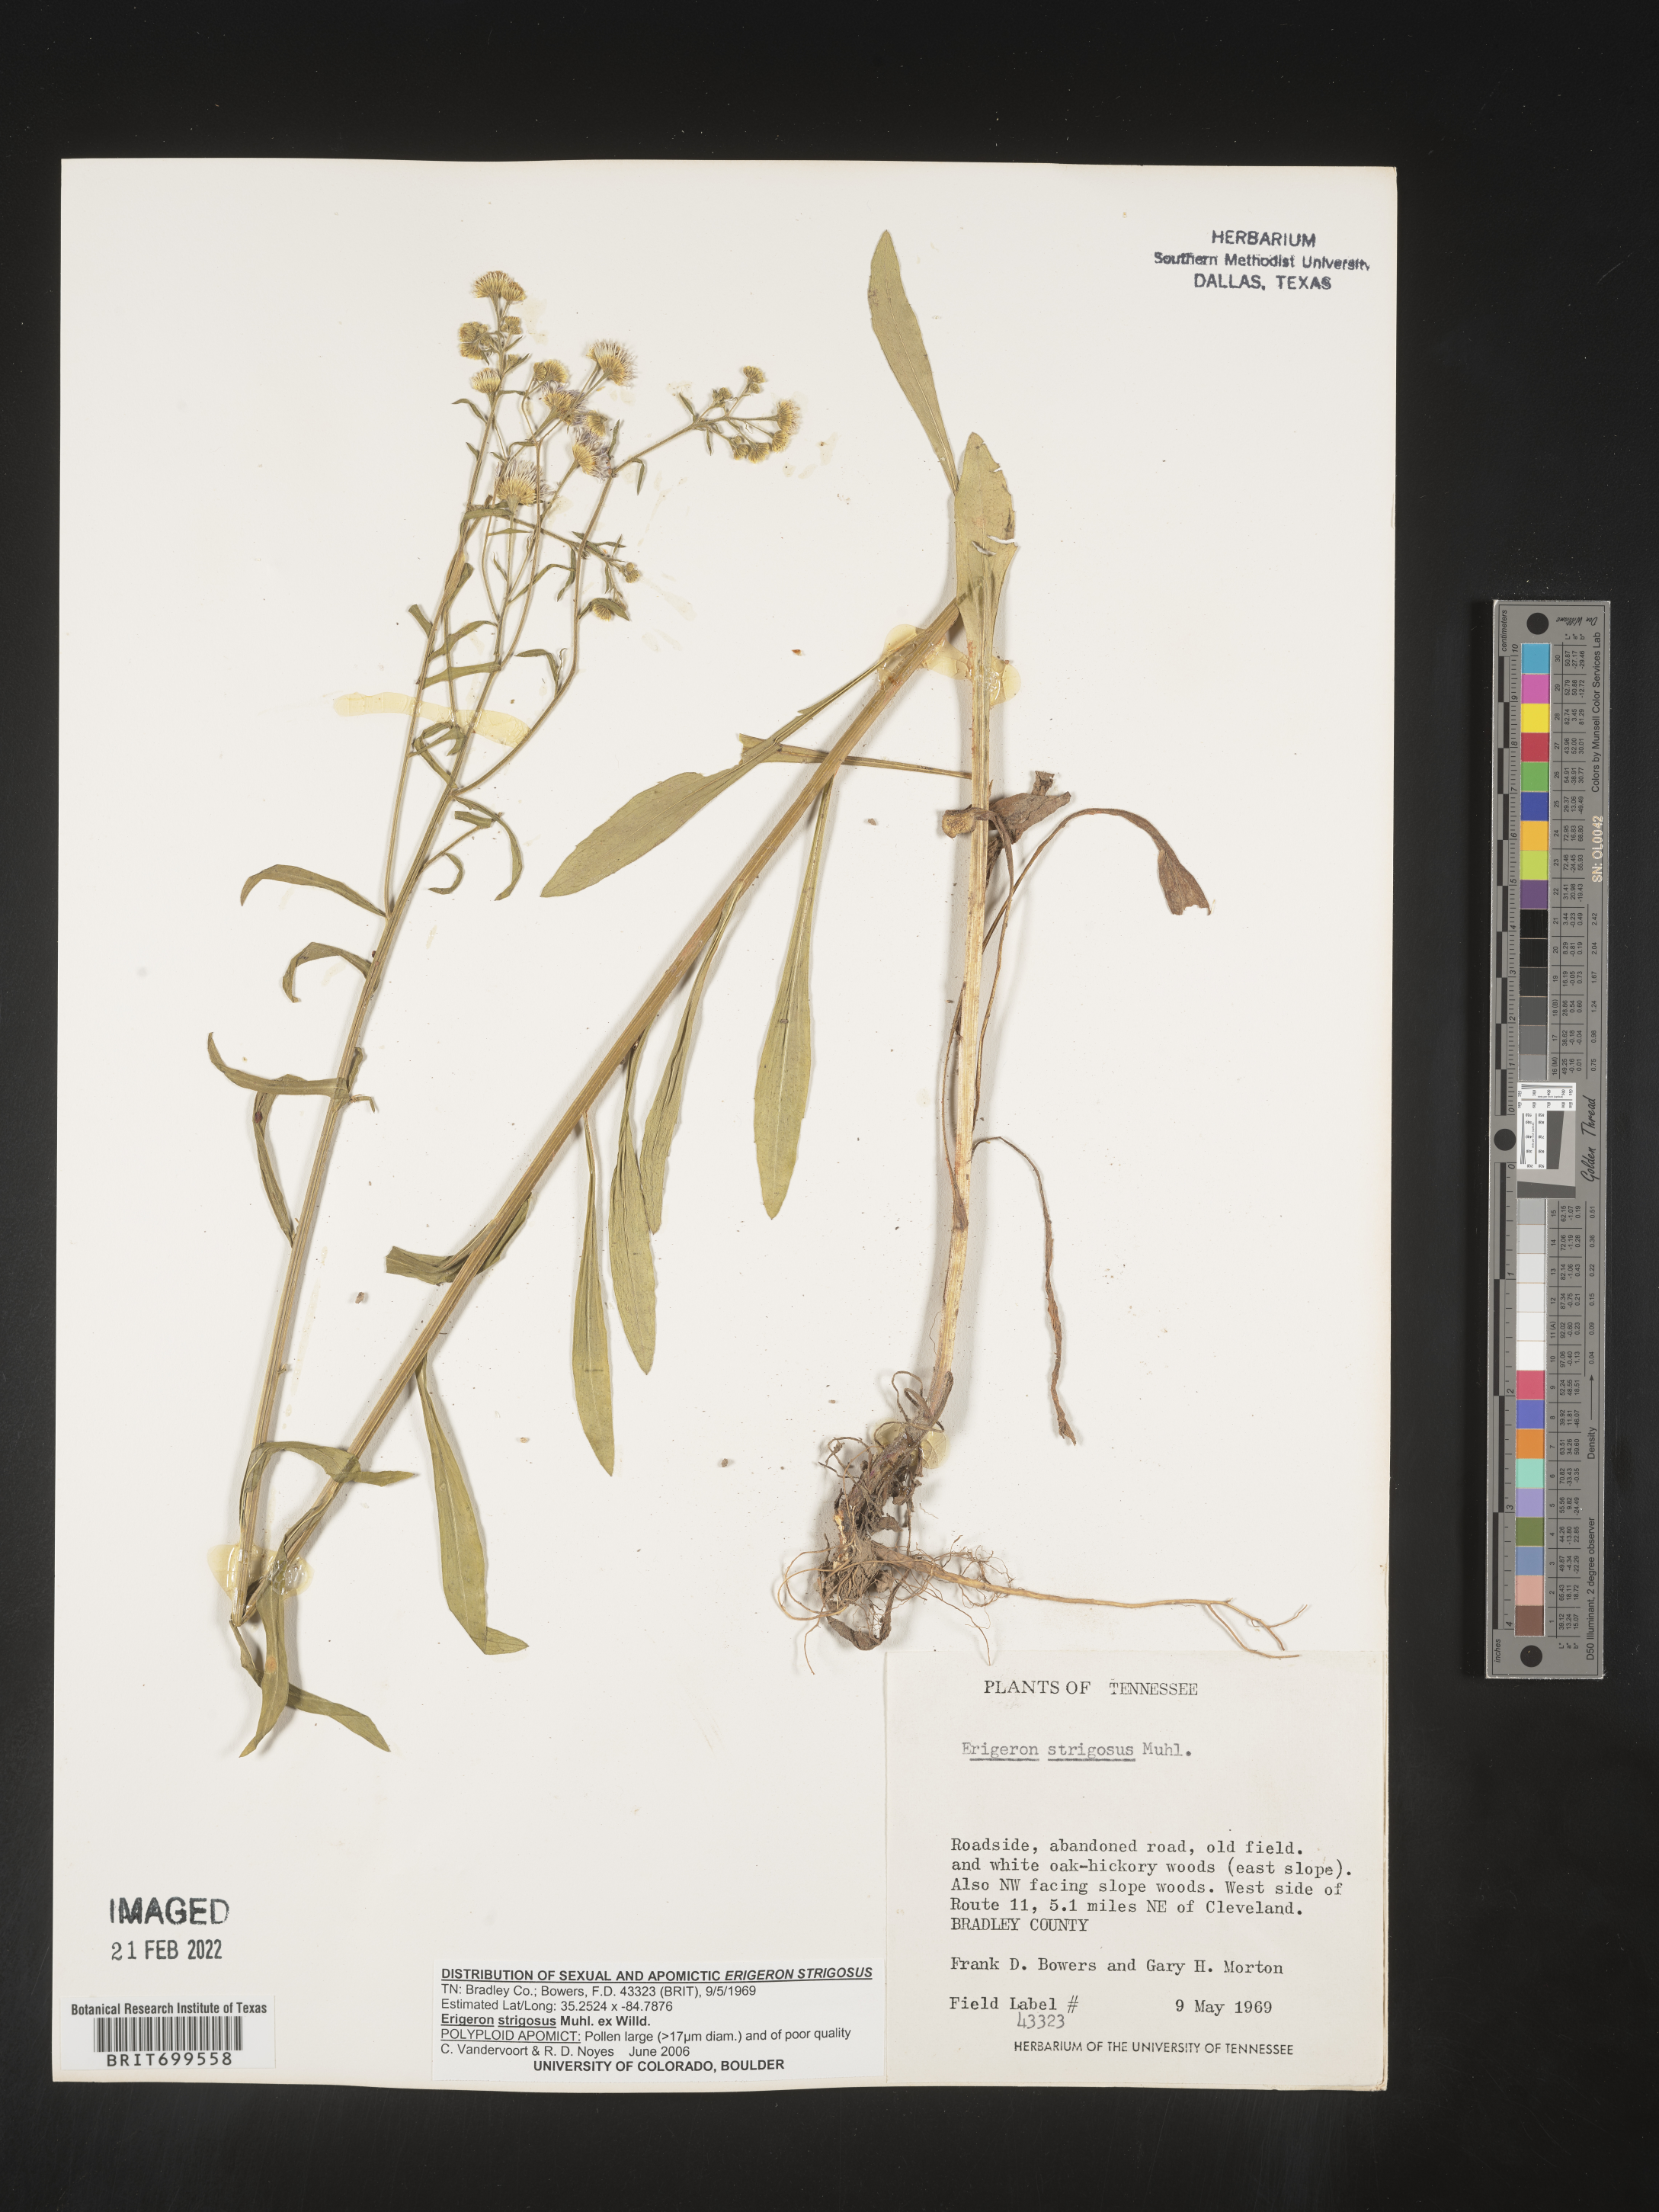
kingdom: Plantae
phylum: Tracheophyta
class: Magnoliopsida
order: Asterales
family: Asteraceae
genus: Erigeron
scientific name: Erigeron strigosus
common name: Common eastern fleabane
